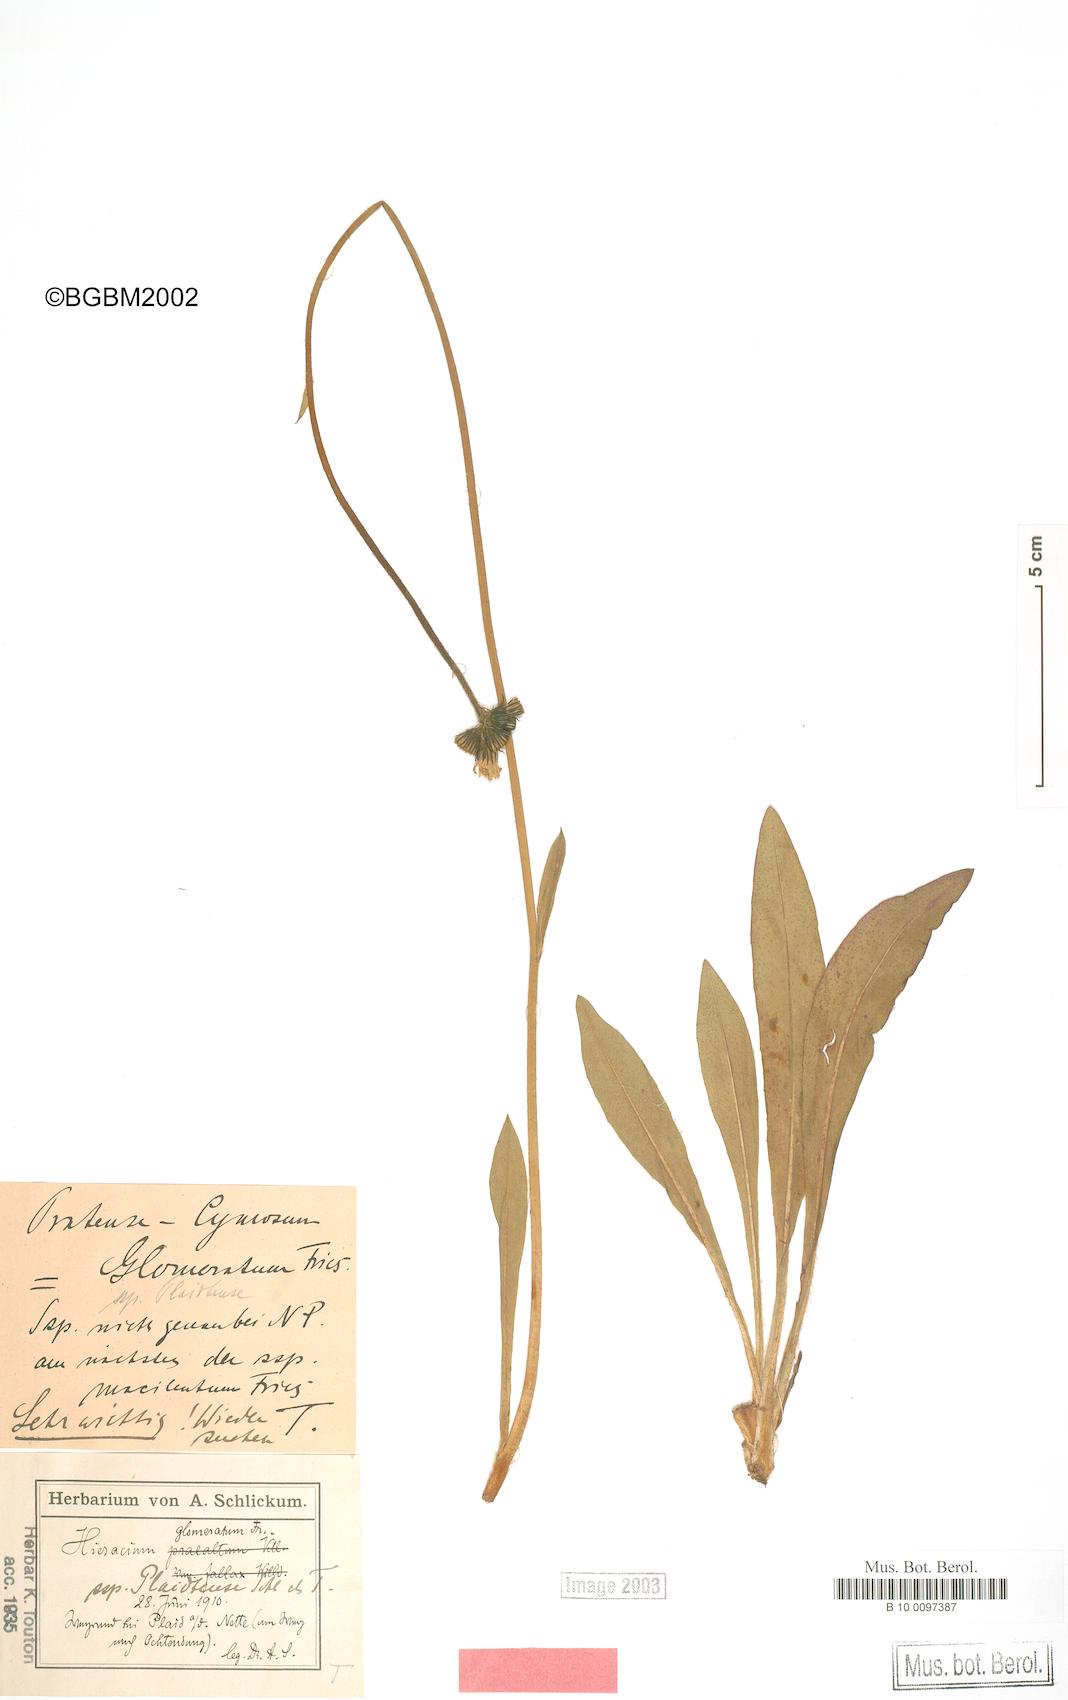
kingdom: Plantae
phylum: Tracheophyta
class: Magnoliopsida
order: Asterales
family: Asteraceae
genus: Hieracium
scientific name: Hieracium glomeratum
